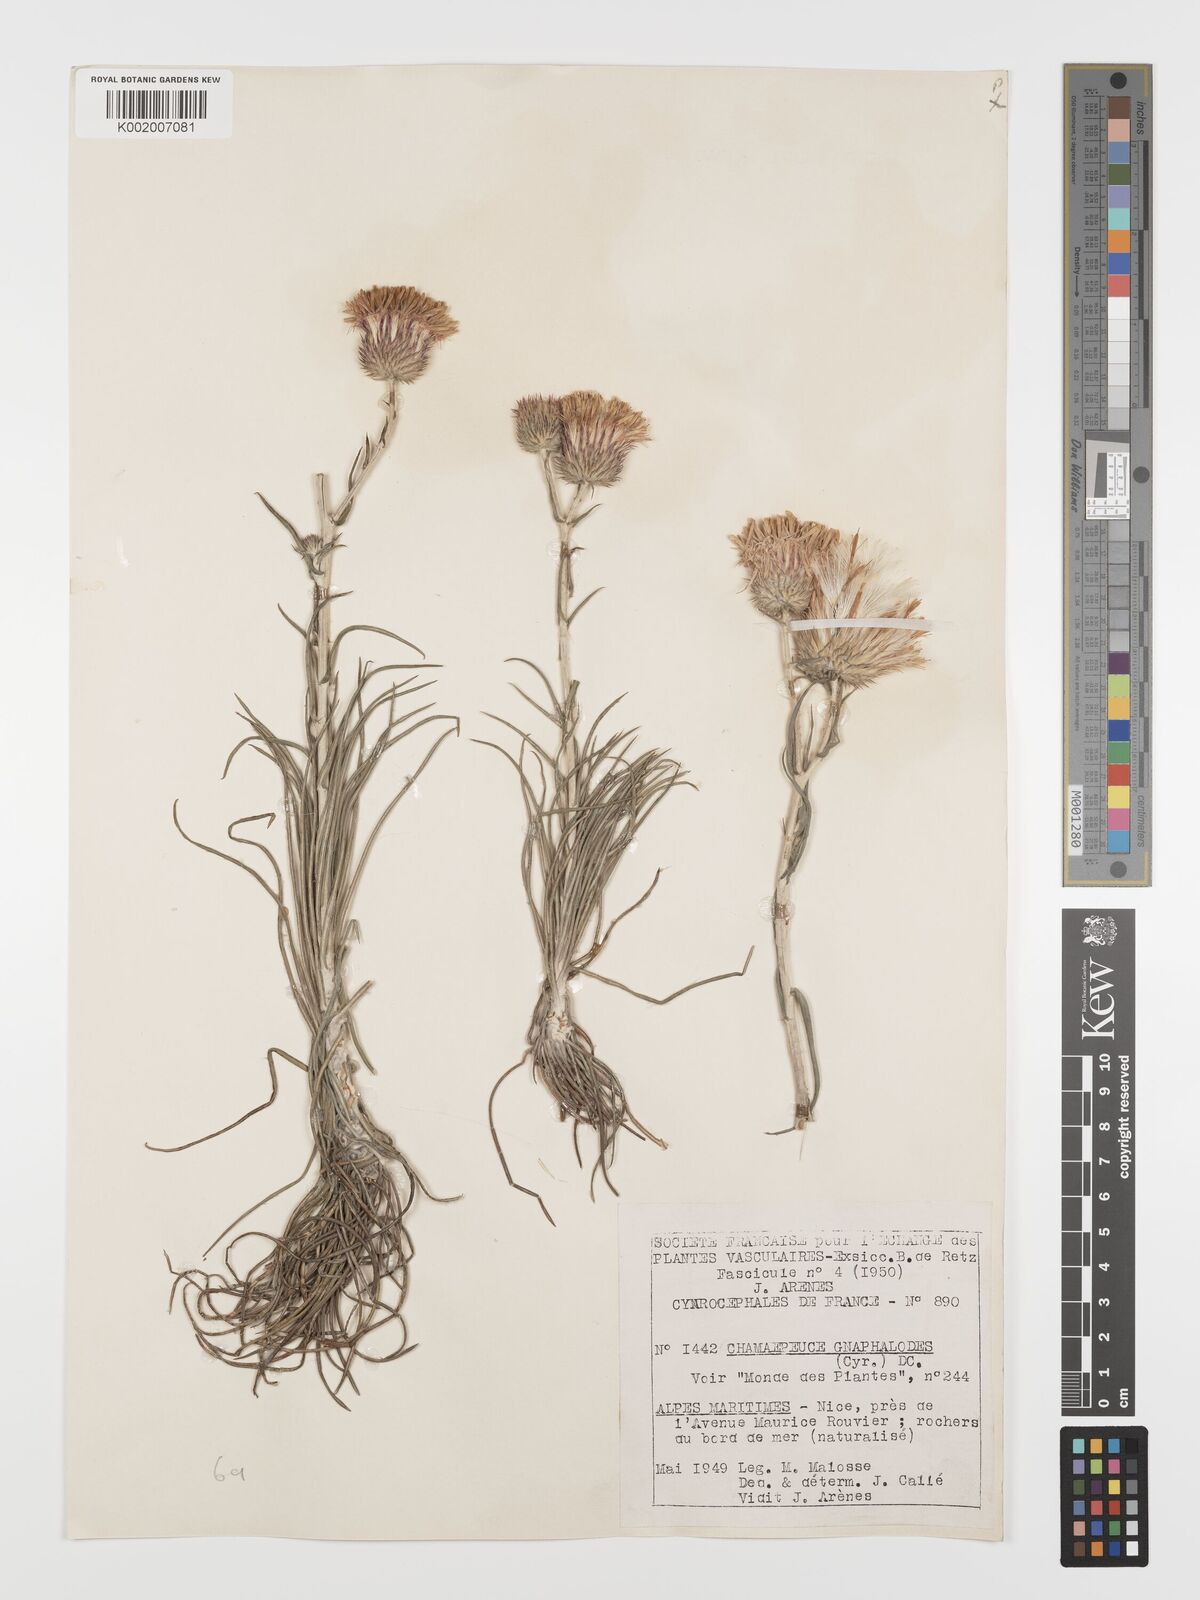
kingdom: Plantae
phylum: Tracheophyta
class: Magnoliopsida
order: Asterales
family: Asteraceae
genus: Ptilostemon
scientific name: Ptilostemon gnaphaloides
